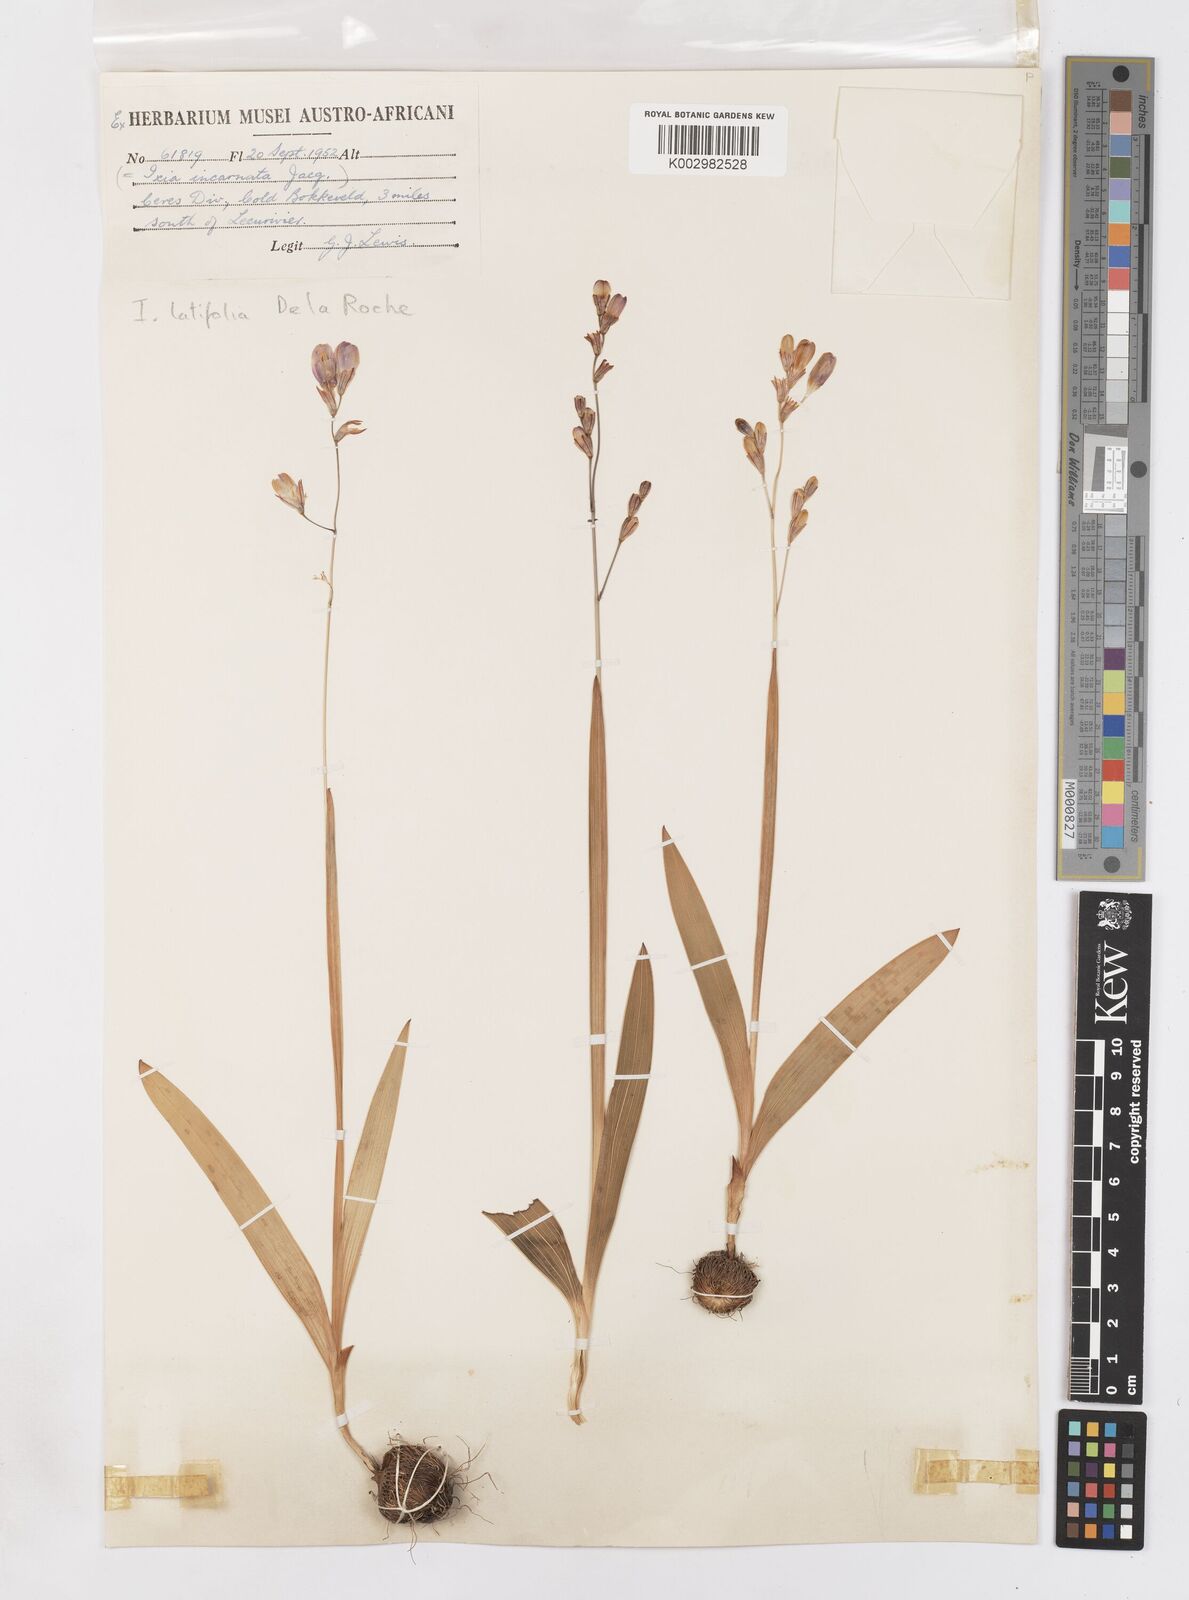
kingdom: Plantae
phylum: Tracheophyta
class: Liliopsida
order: Asparagales
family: Iridaceae
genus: Ixia
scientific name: Ixia latifolia
